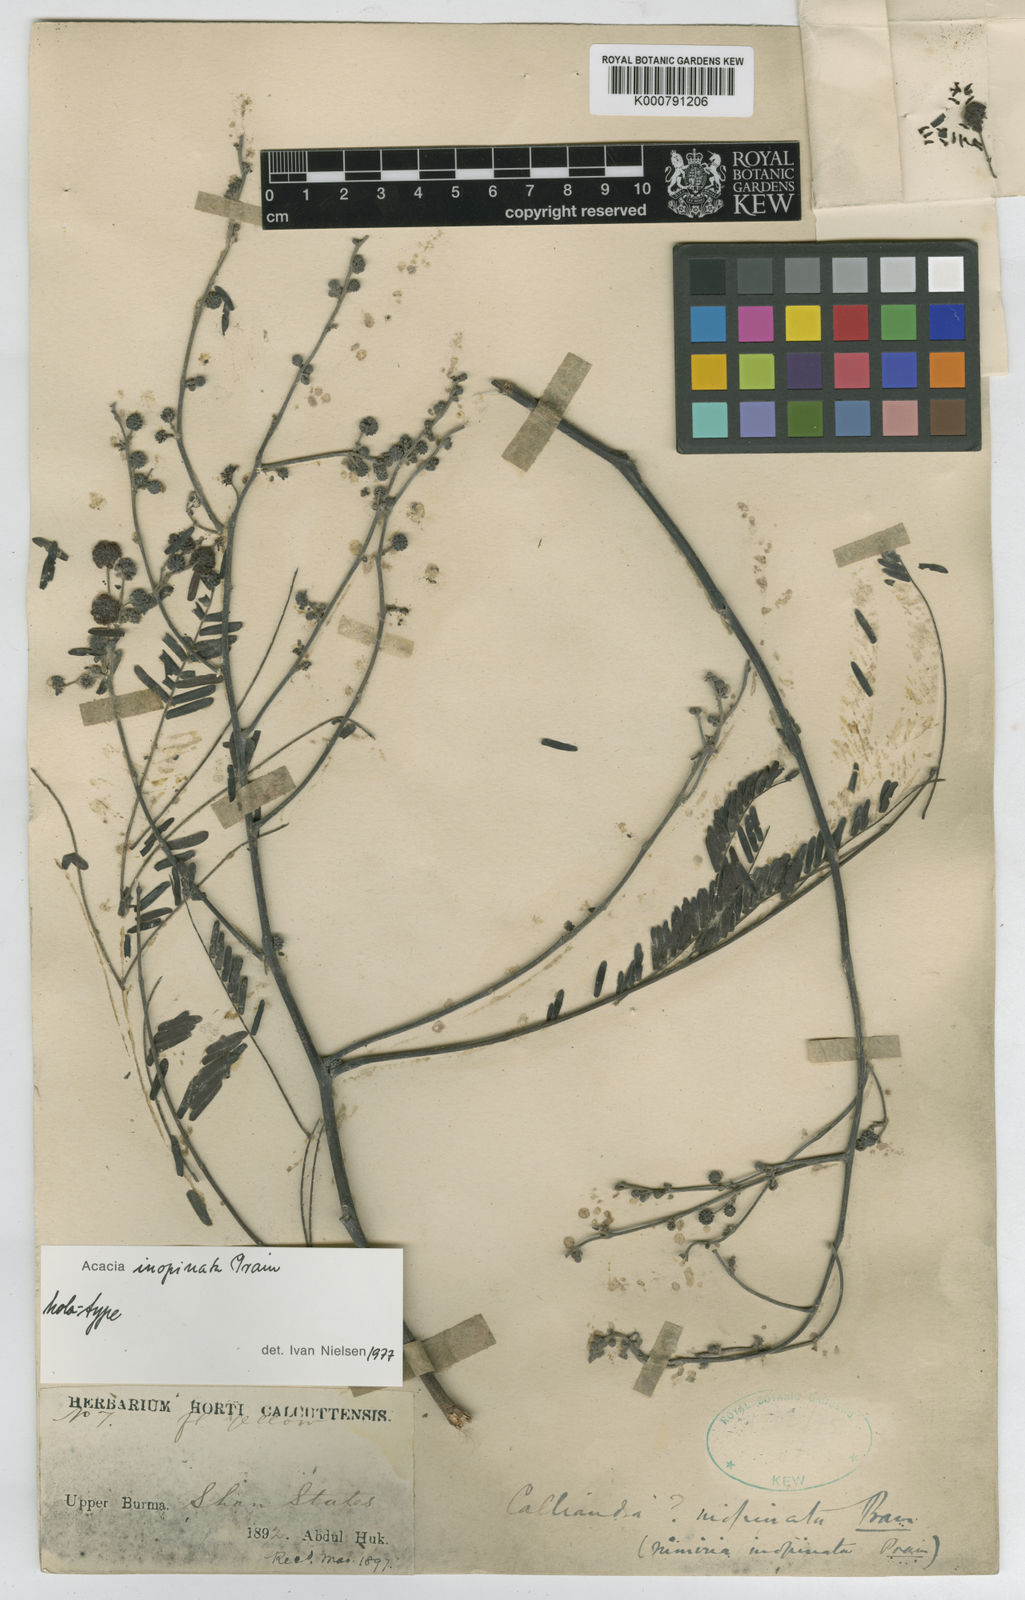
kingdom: Plantae
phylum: Tracheophyta
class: Magnoliopsida
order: Fabales
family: Fabaceae
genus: Vachellia
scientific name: Vachellia inopinata
